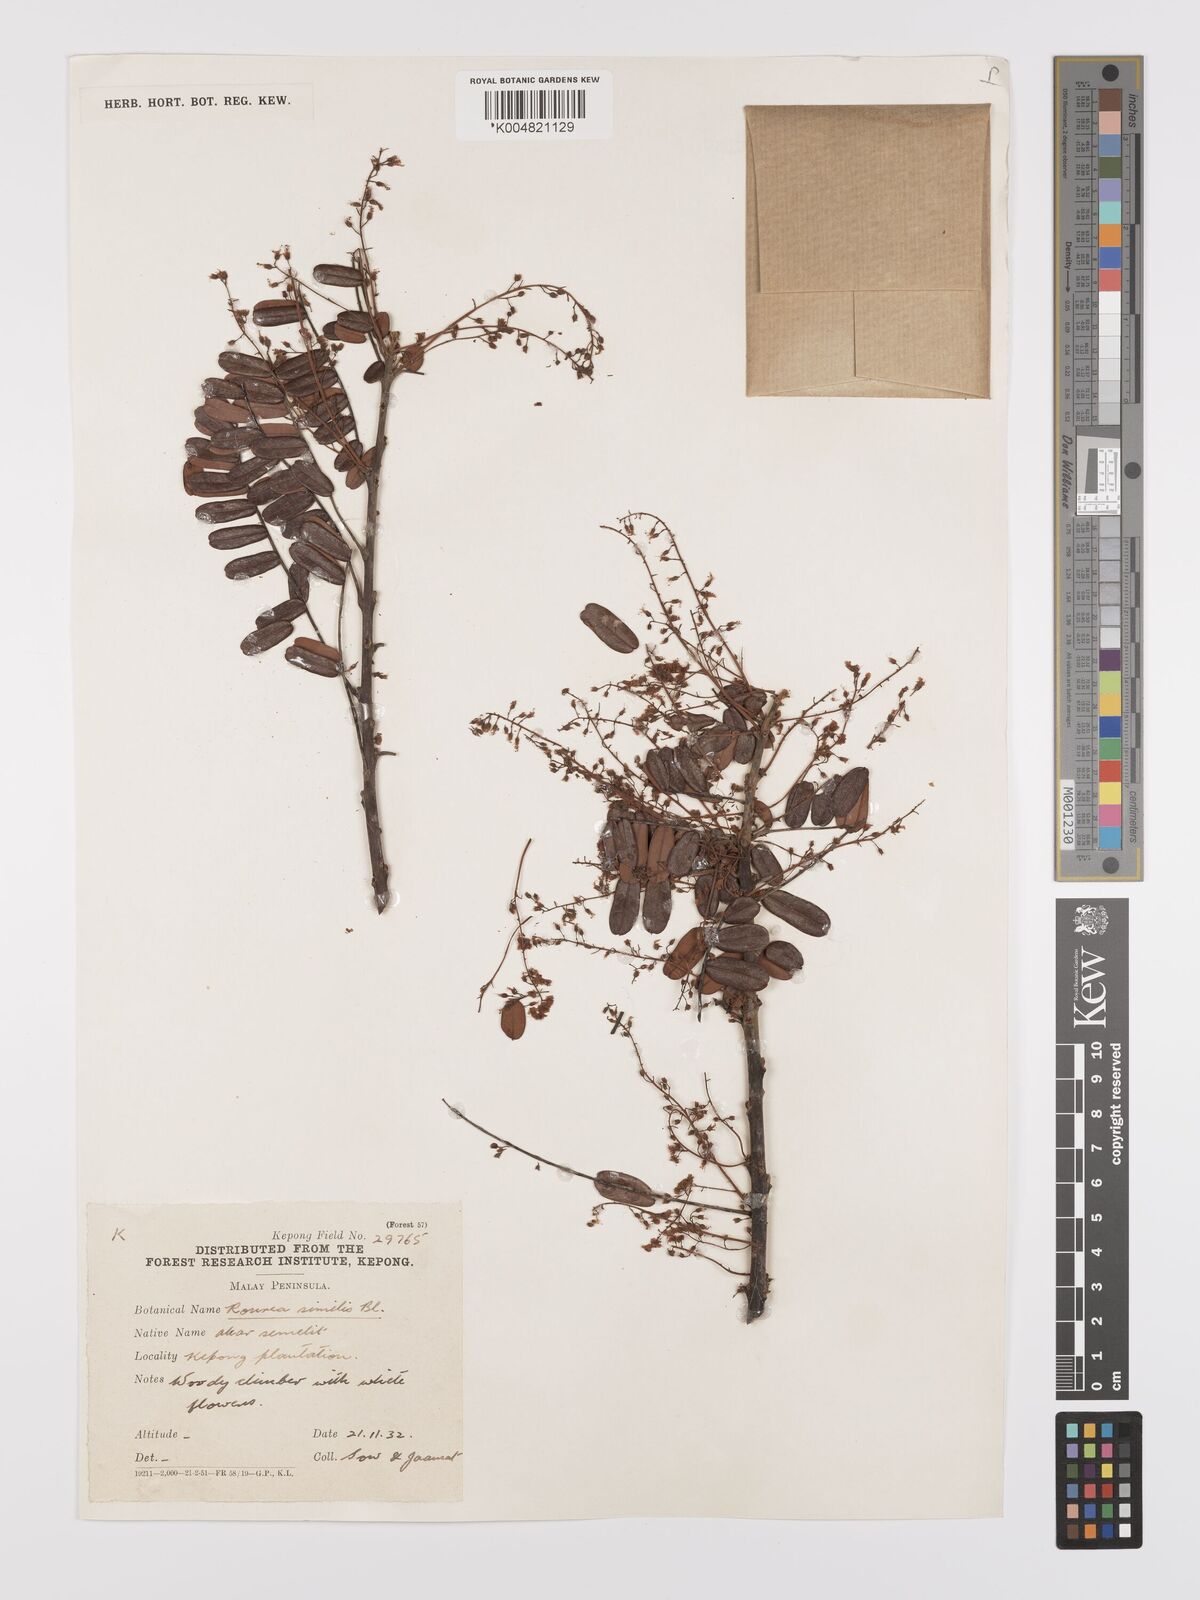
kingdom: Plantae
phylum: Tracheophyta
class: Magnoliopsida
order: Oxalidales
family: Connaraceae
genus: Rourea
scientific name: Rourea mimosoides
